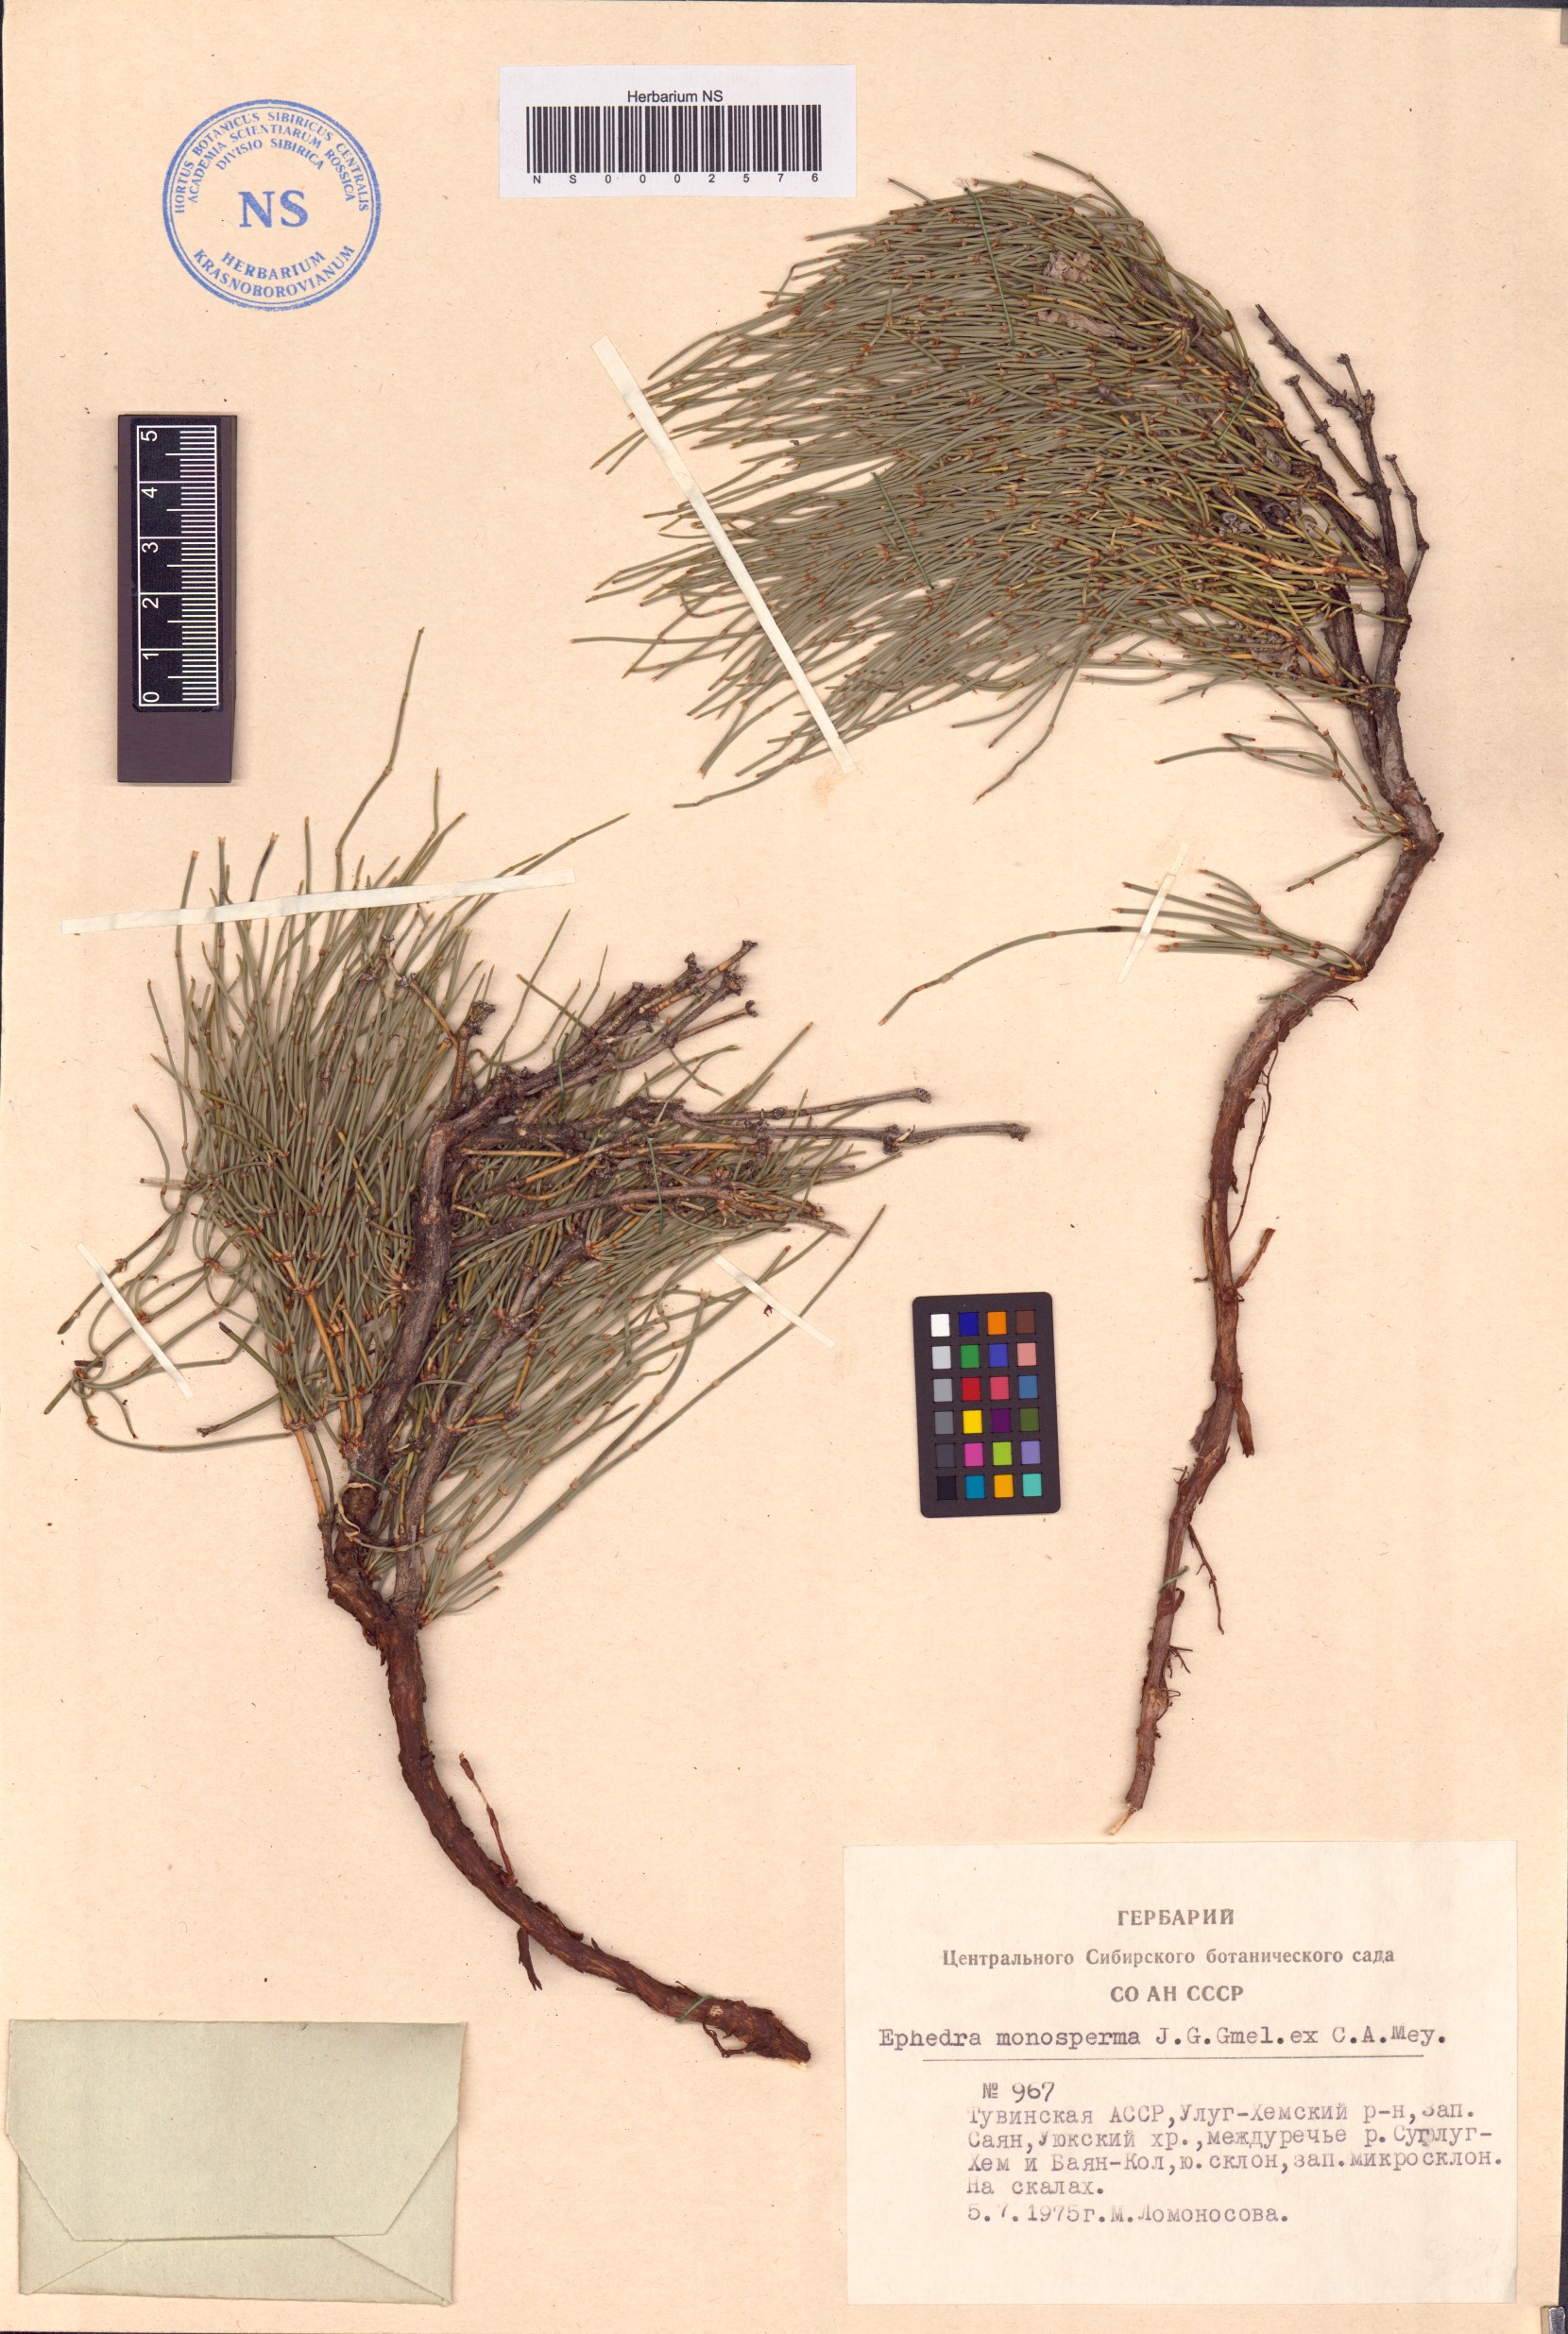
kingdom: Plantae
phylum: Tracheophyta
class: Gnetopsida
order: Ephedrales
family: Ephedraceae
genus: Ephedra
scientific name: Ephedra monosperma
